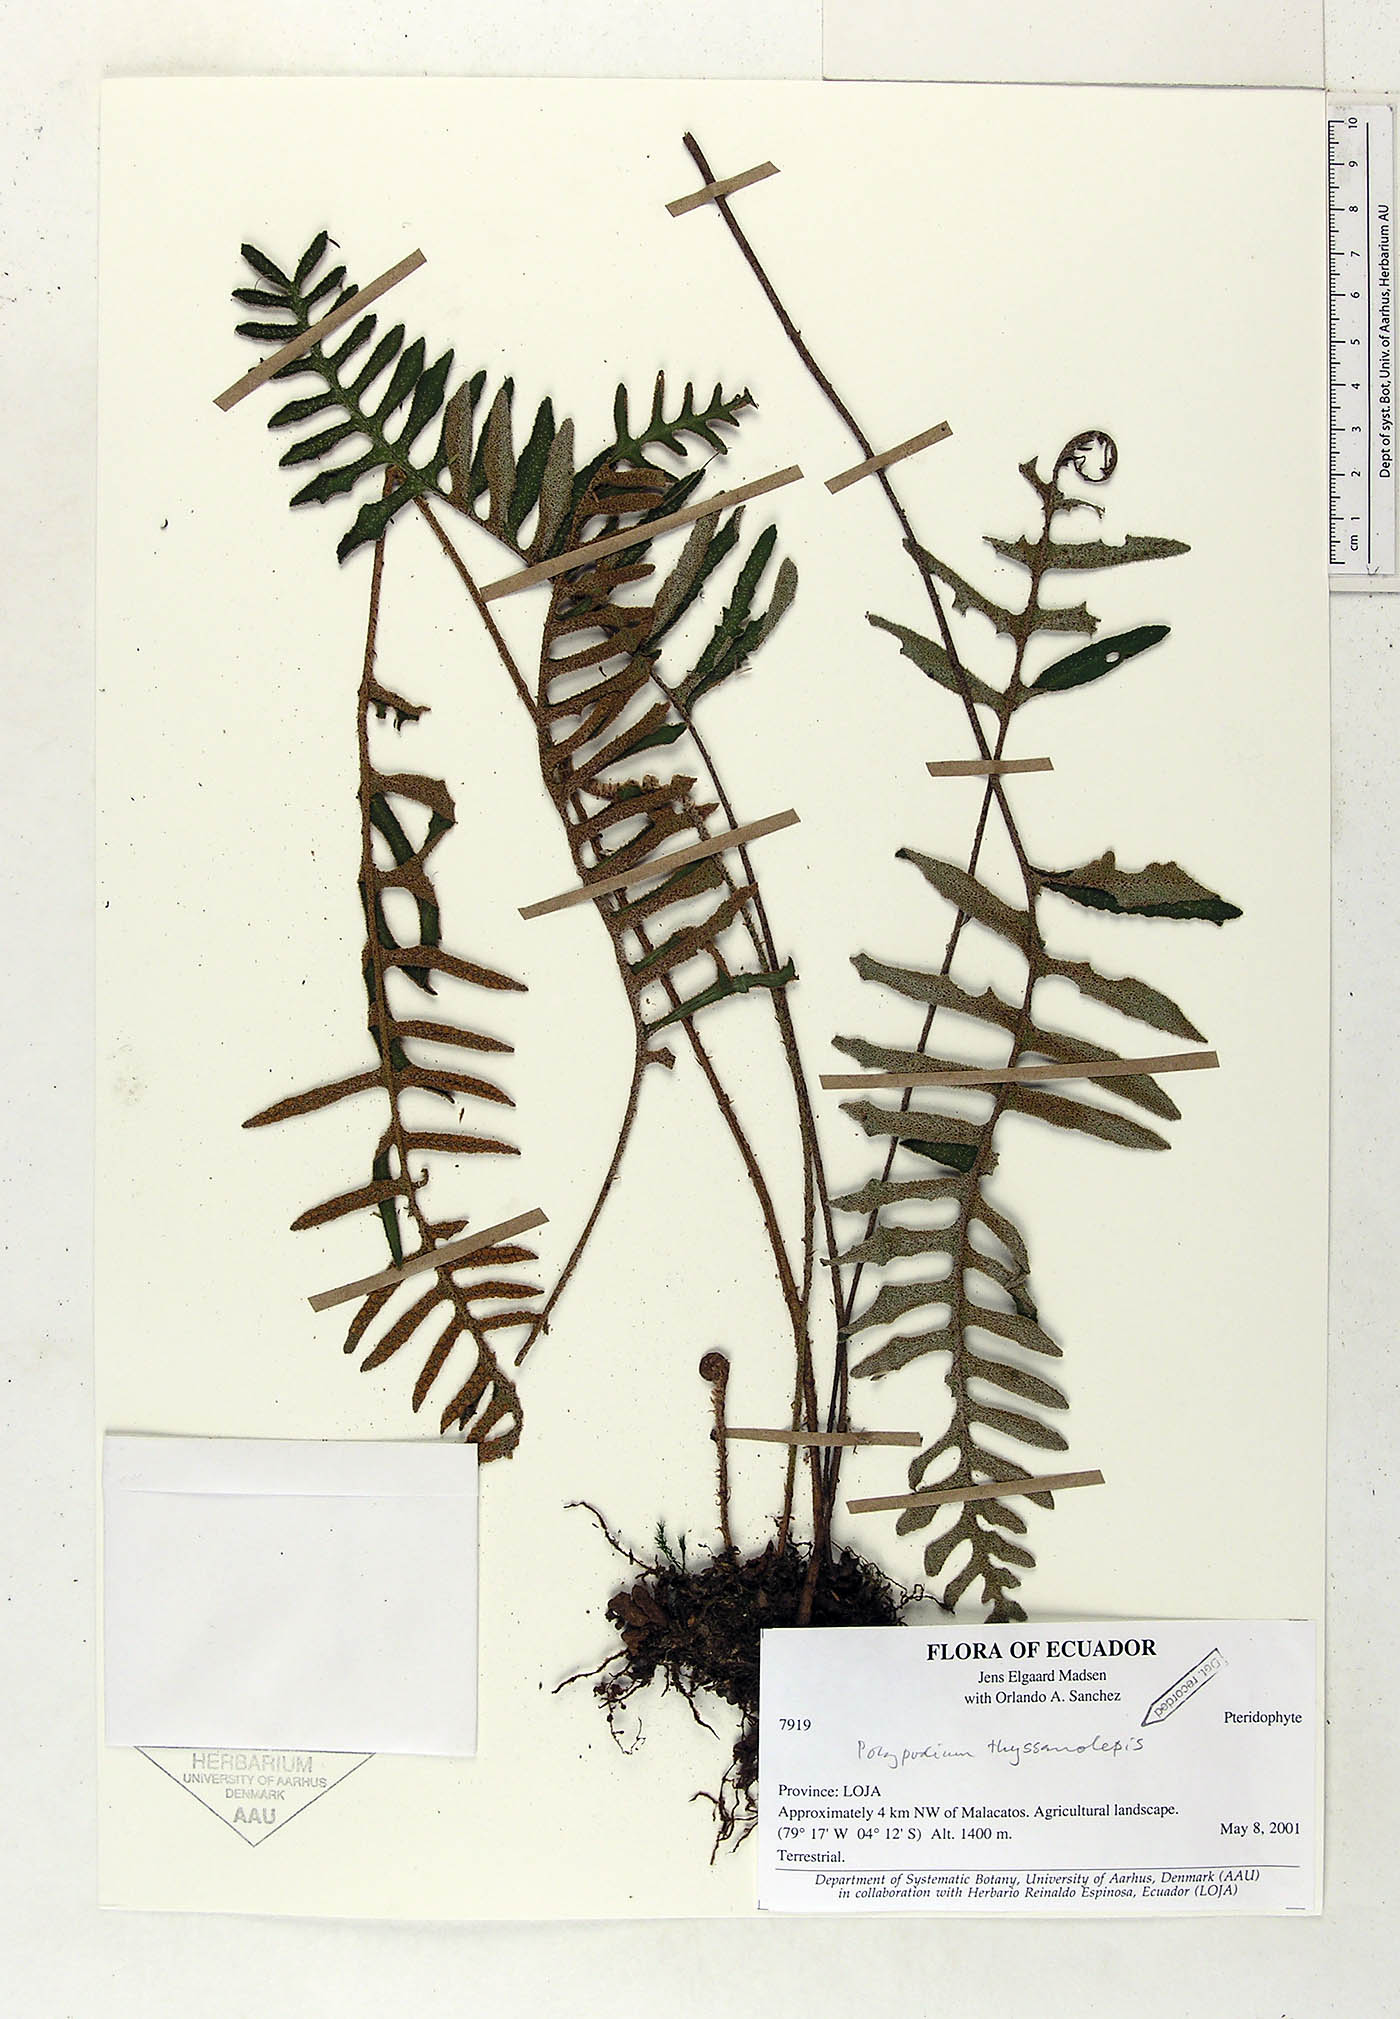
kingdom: Plantae
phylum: Tracheophyta
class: Liliopsida
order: Commelinales
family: Commelinaceae
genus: Tradescantia
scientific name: Tradescantia
